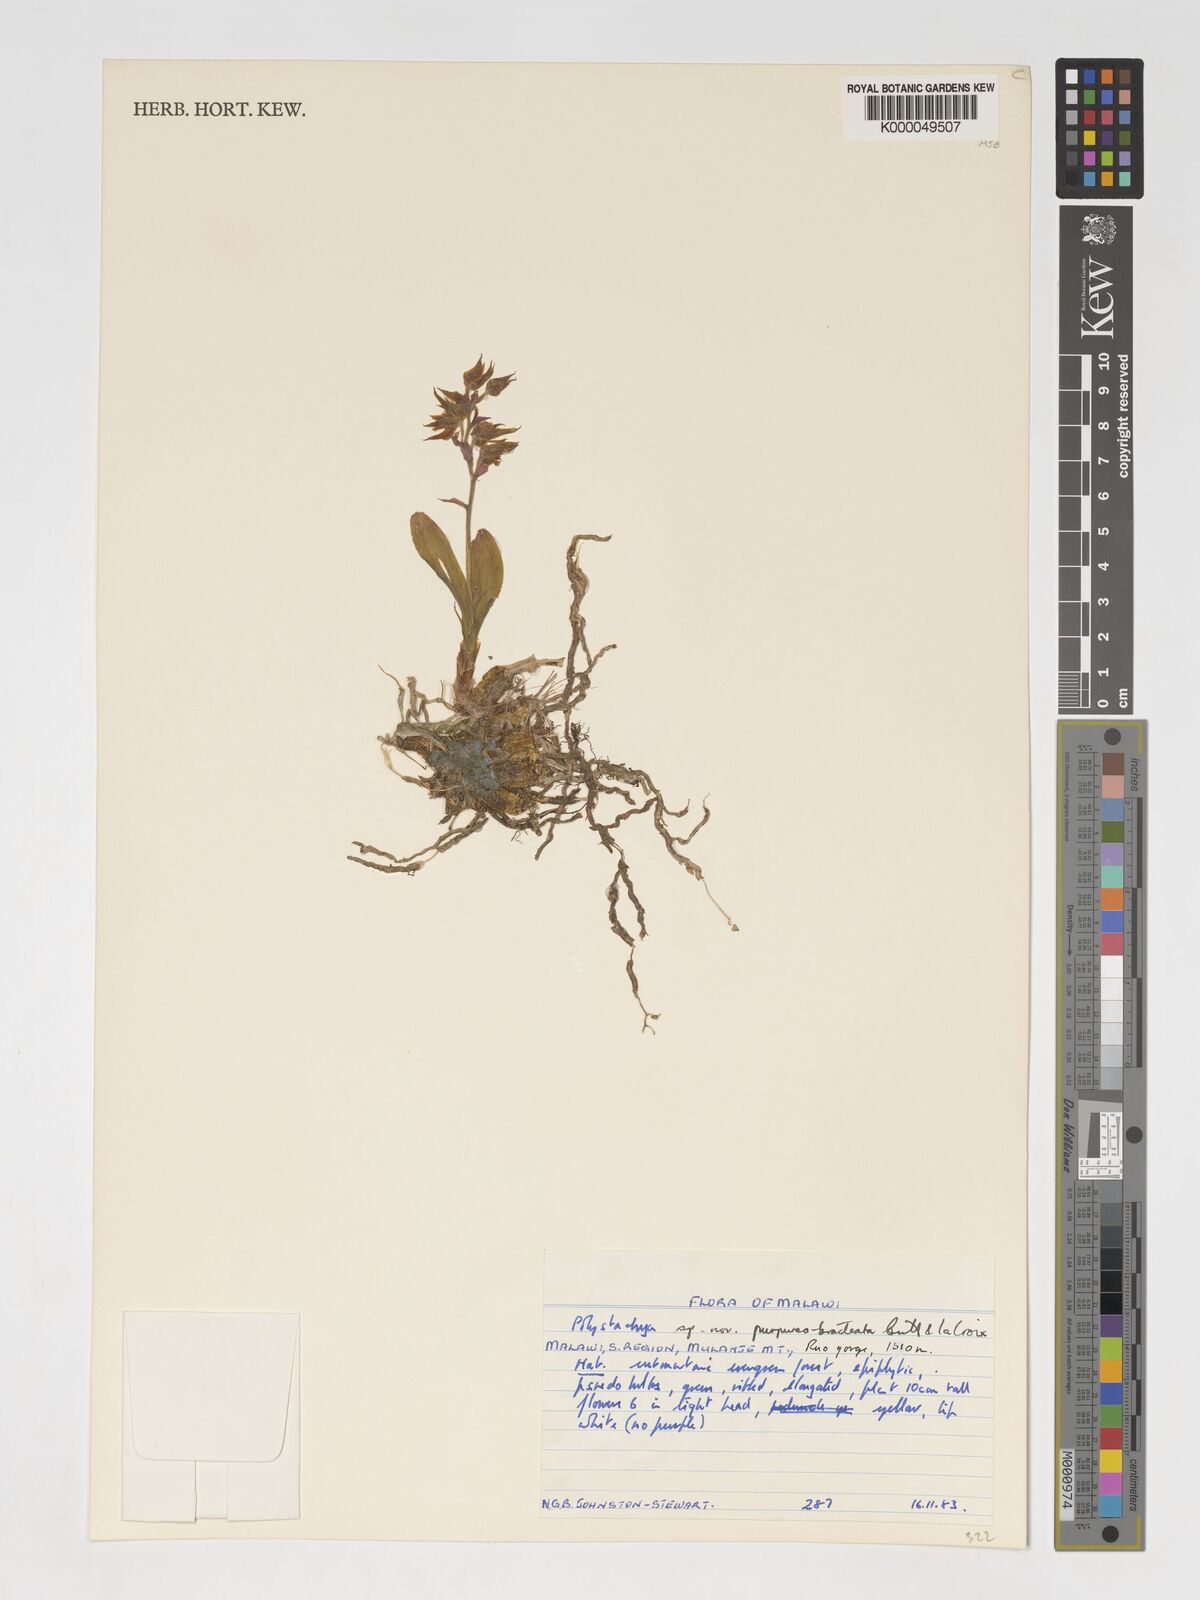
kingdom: Plantae
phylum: Tracheophyta
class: Liliopsida
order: Asparagales
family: Orchidaceae
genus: Polystachya
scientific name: Polystachya purpureobracteata
